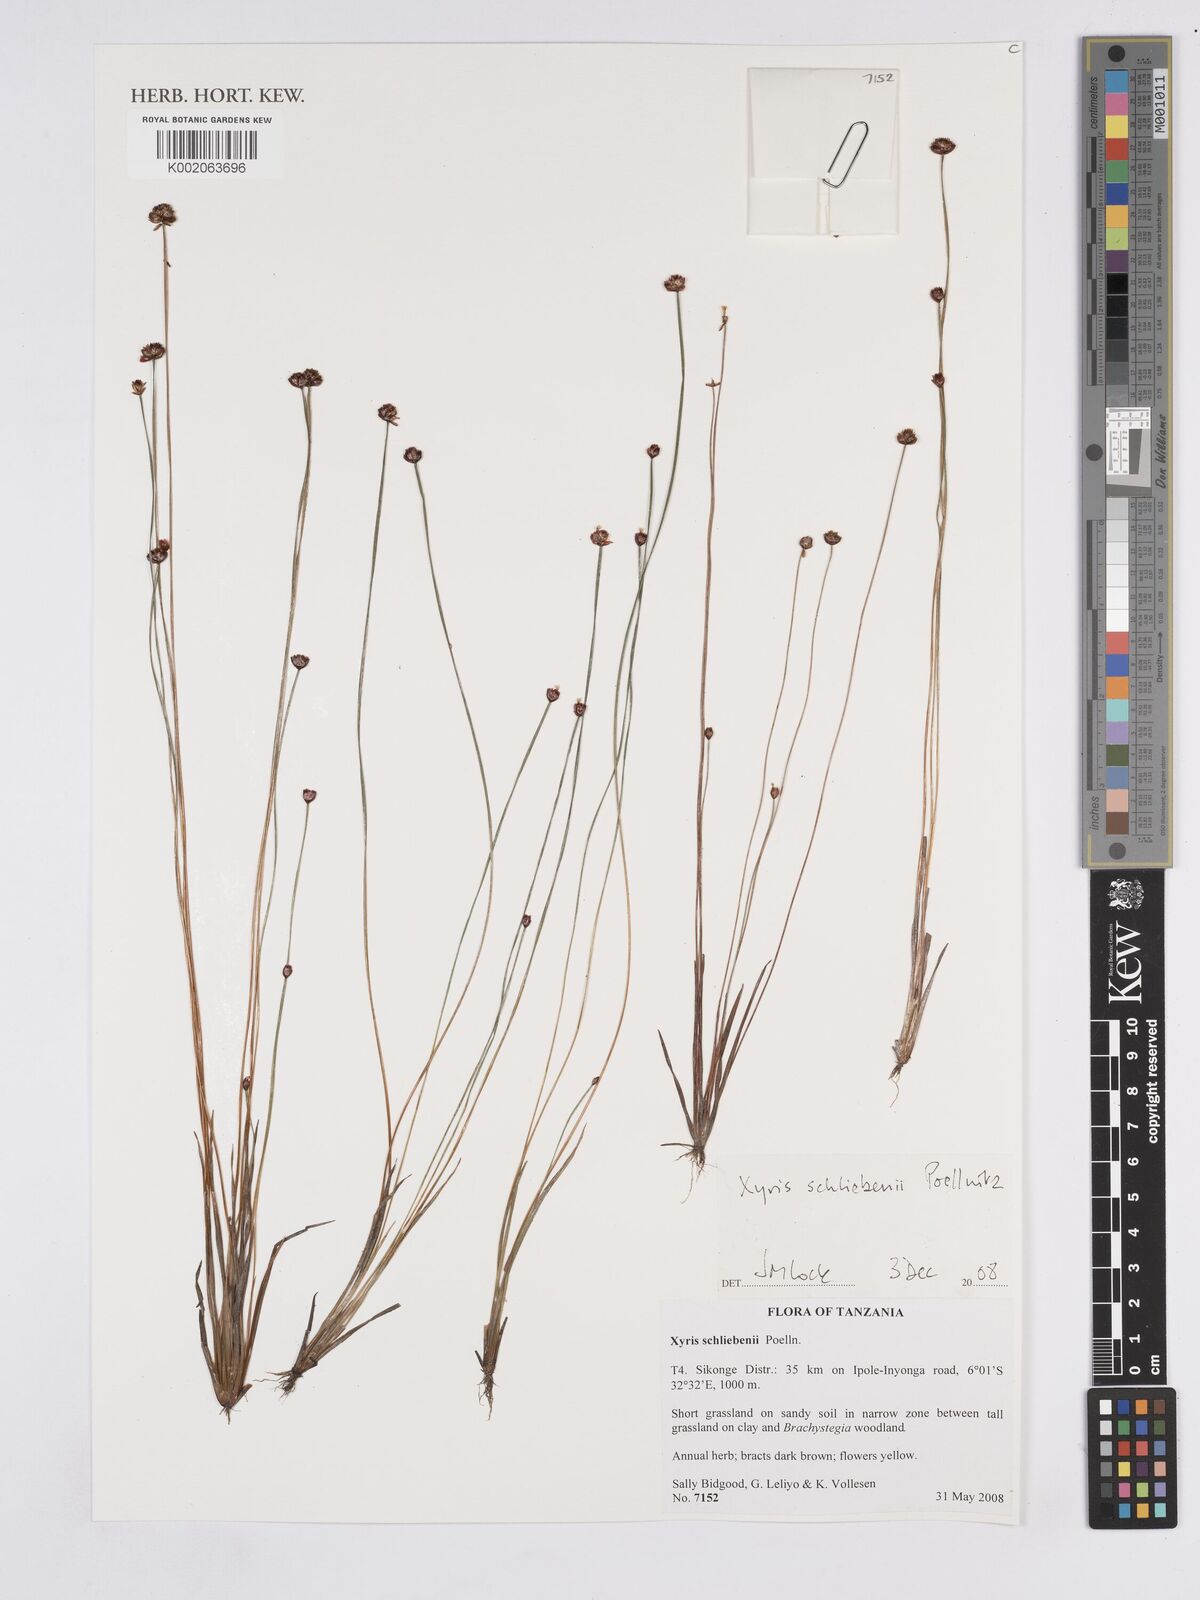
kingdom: Plantae
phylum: Tracheophyta
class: Liliopsida
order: Poales
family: Xyridaceae
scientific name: Xyridaceae
